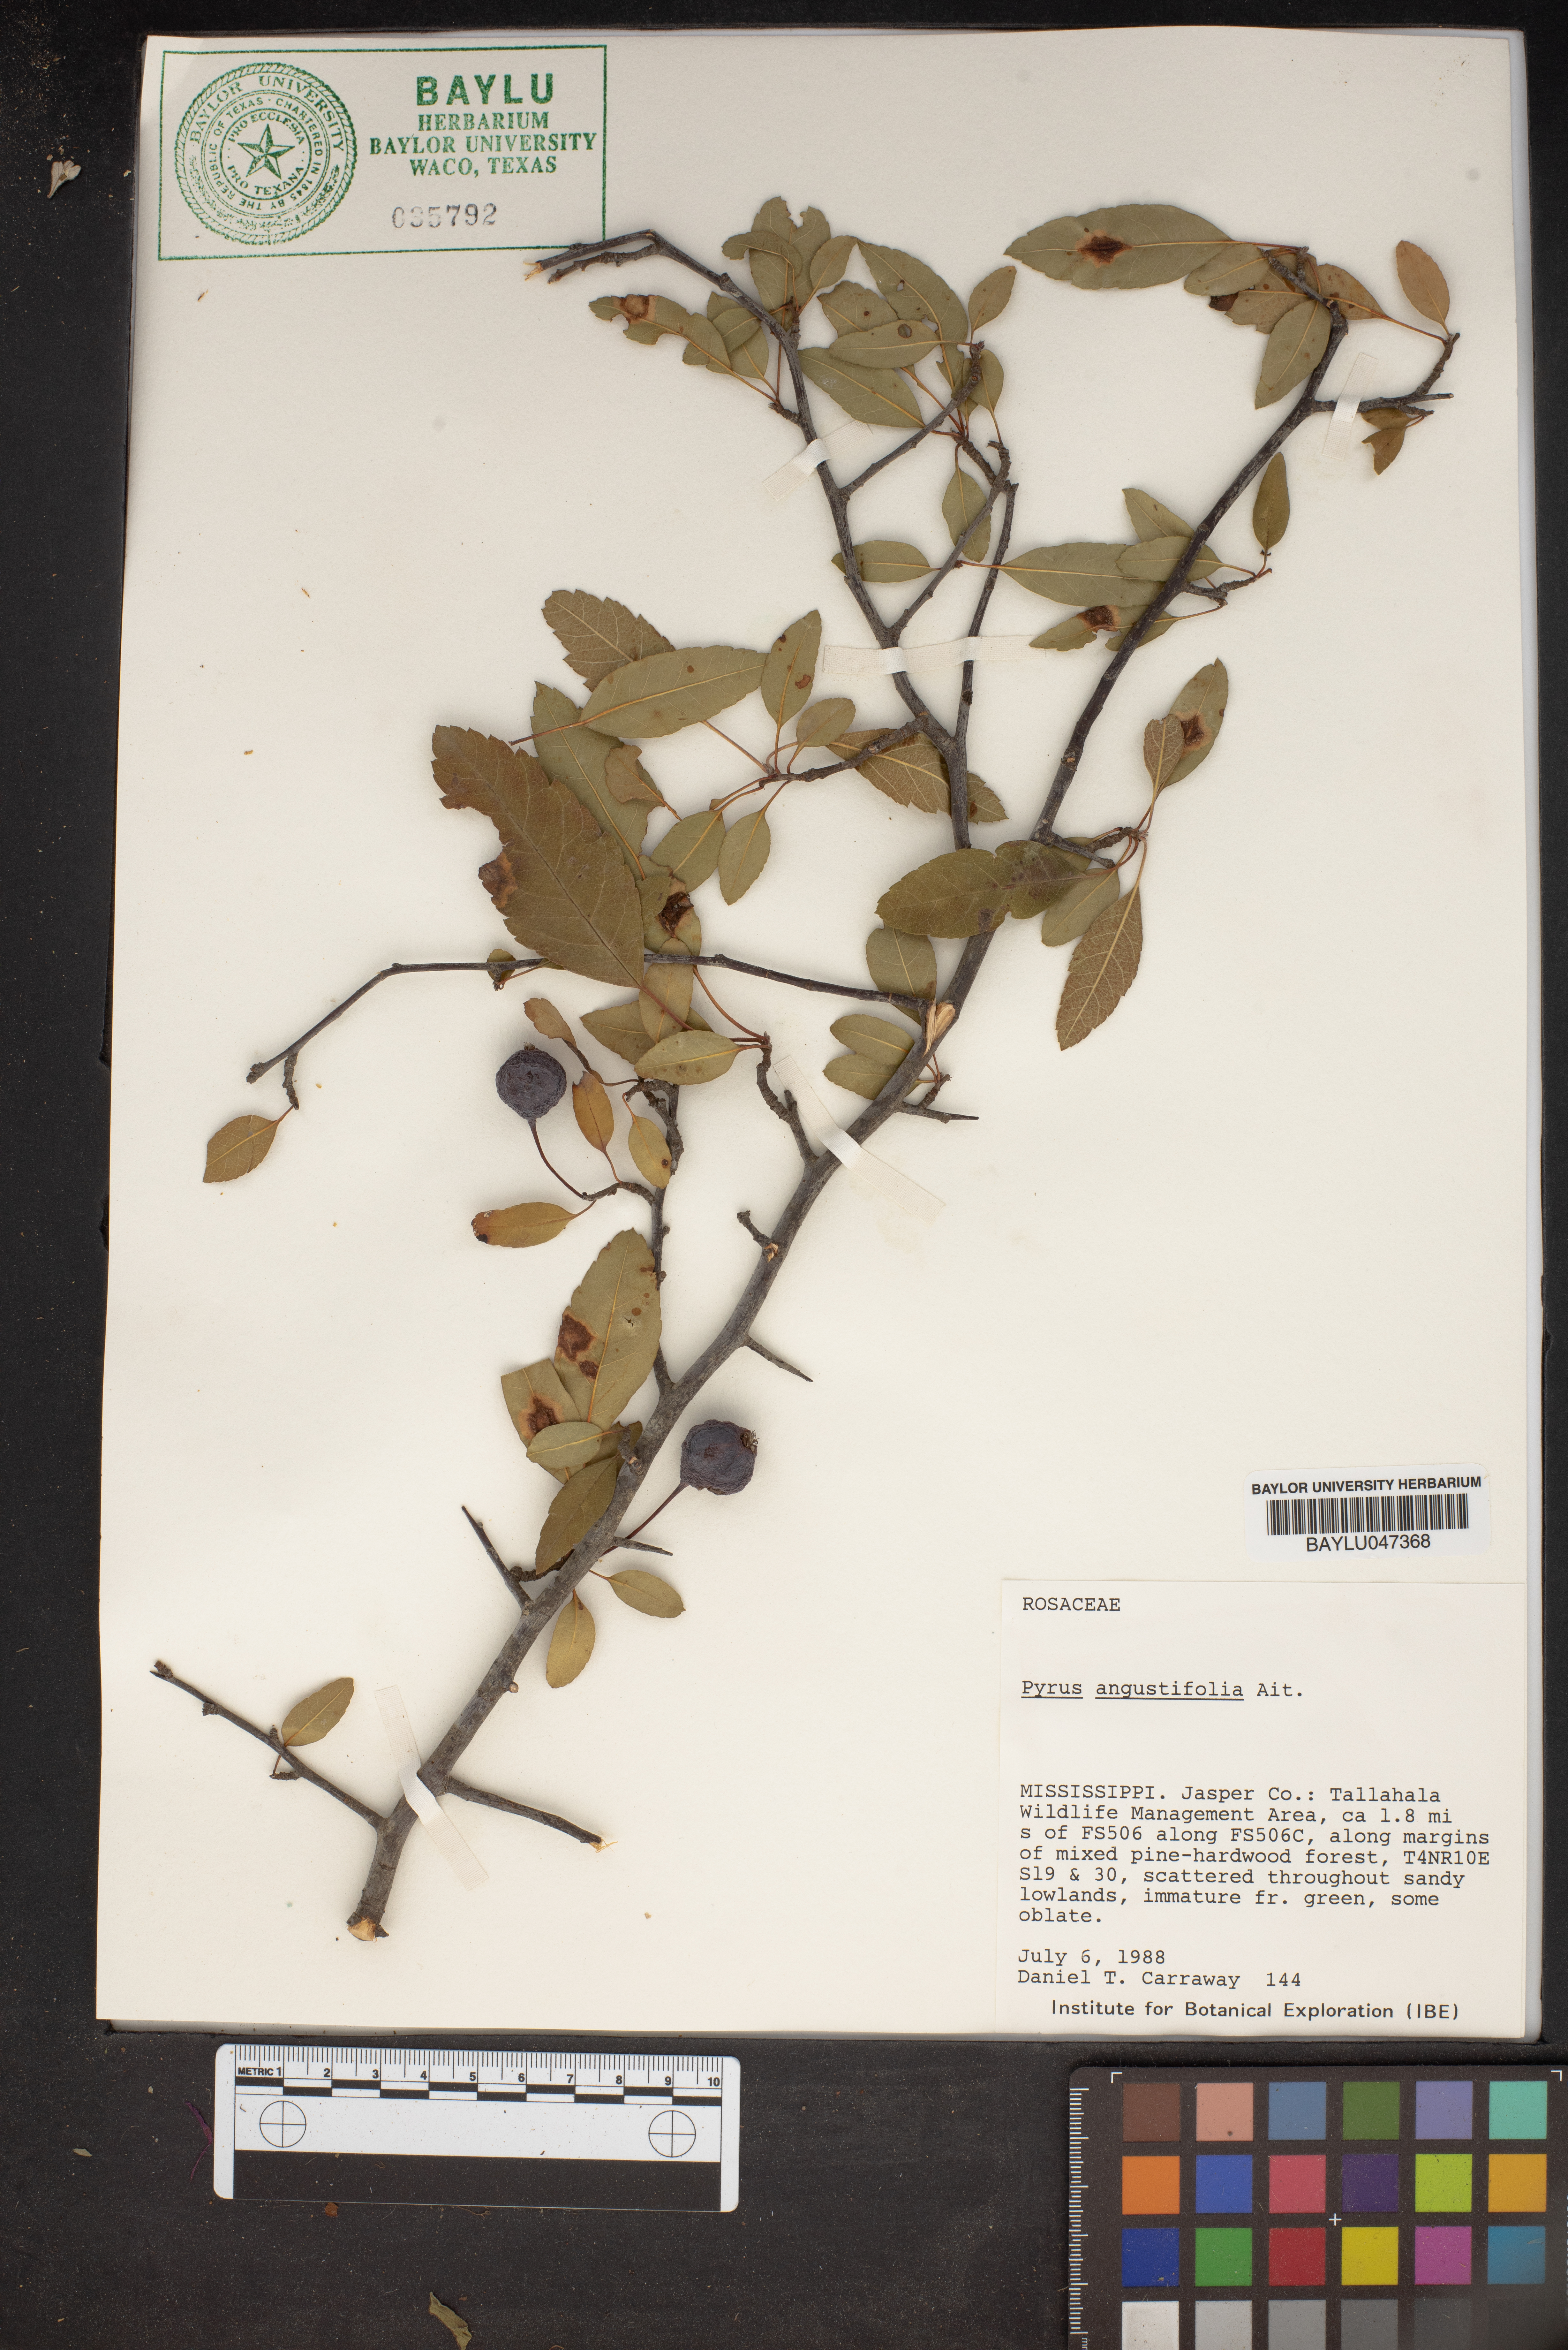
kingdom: Plantae
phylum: Tracheophyta
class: Magnoliopsida
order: Rosales
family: Rosaceae
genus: Malus
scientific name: Malus angustifolia
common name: Southern crab apple
